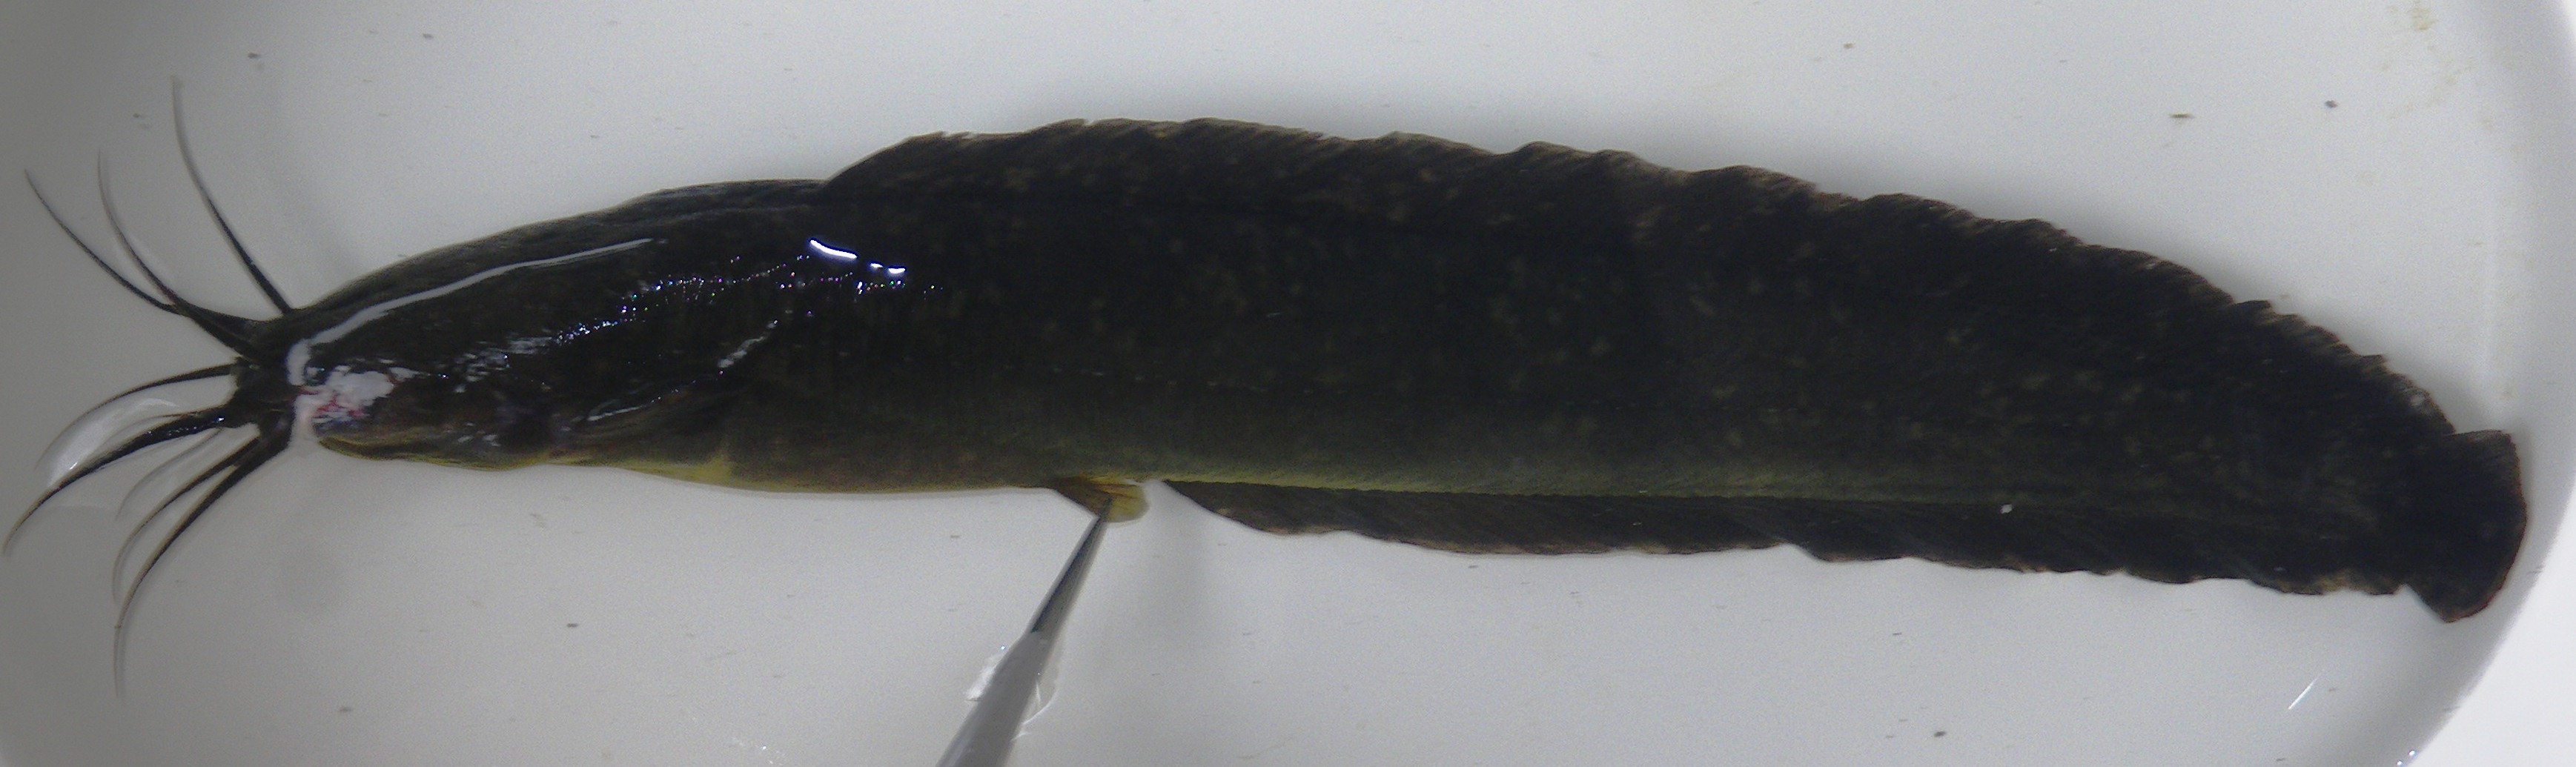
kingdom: Animalia
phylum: Chordata
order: Siluriformes
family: Clariidae
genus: Clarias
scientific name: Clarias theodorae
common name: Snake catfish
